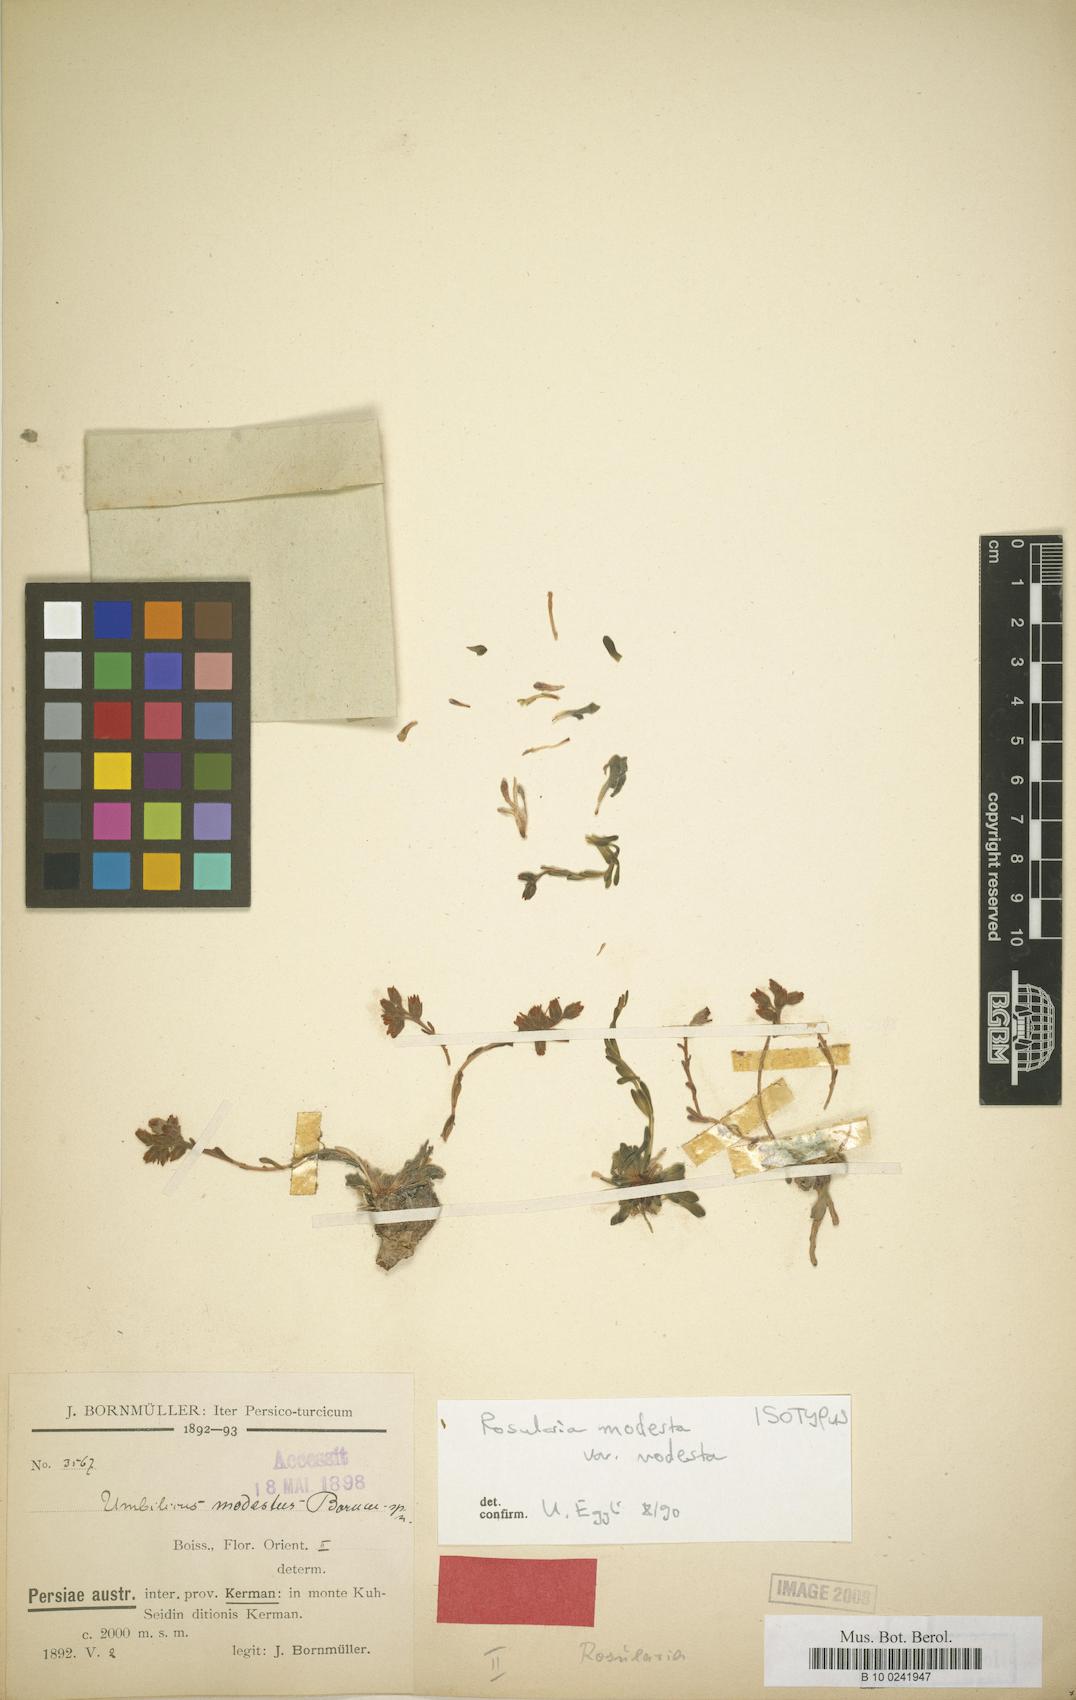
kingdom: Plantae
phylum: Tracheophyta
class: Magnoliopsida
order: Saxifragales
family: Crassulaceae
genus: Rosularia
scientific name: Rosularia modesta
